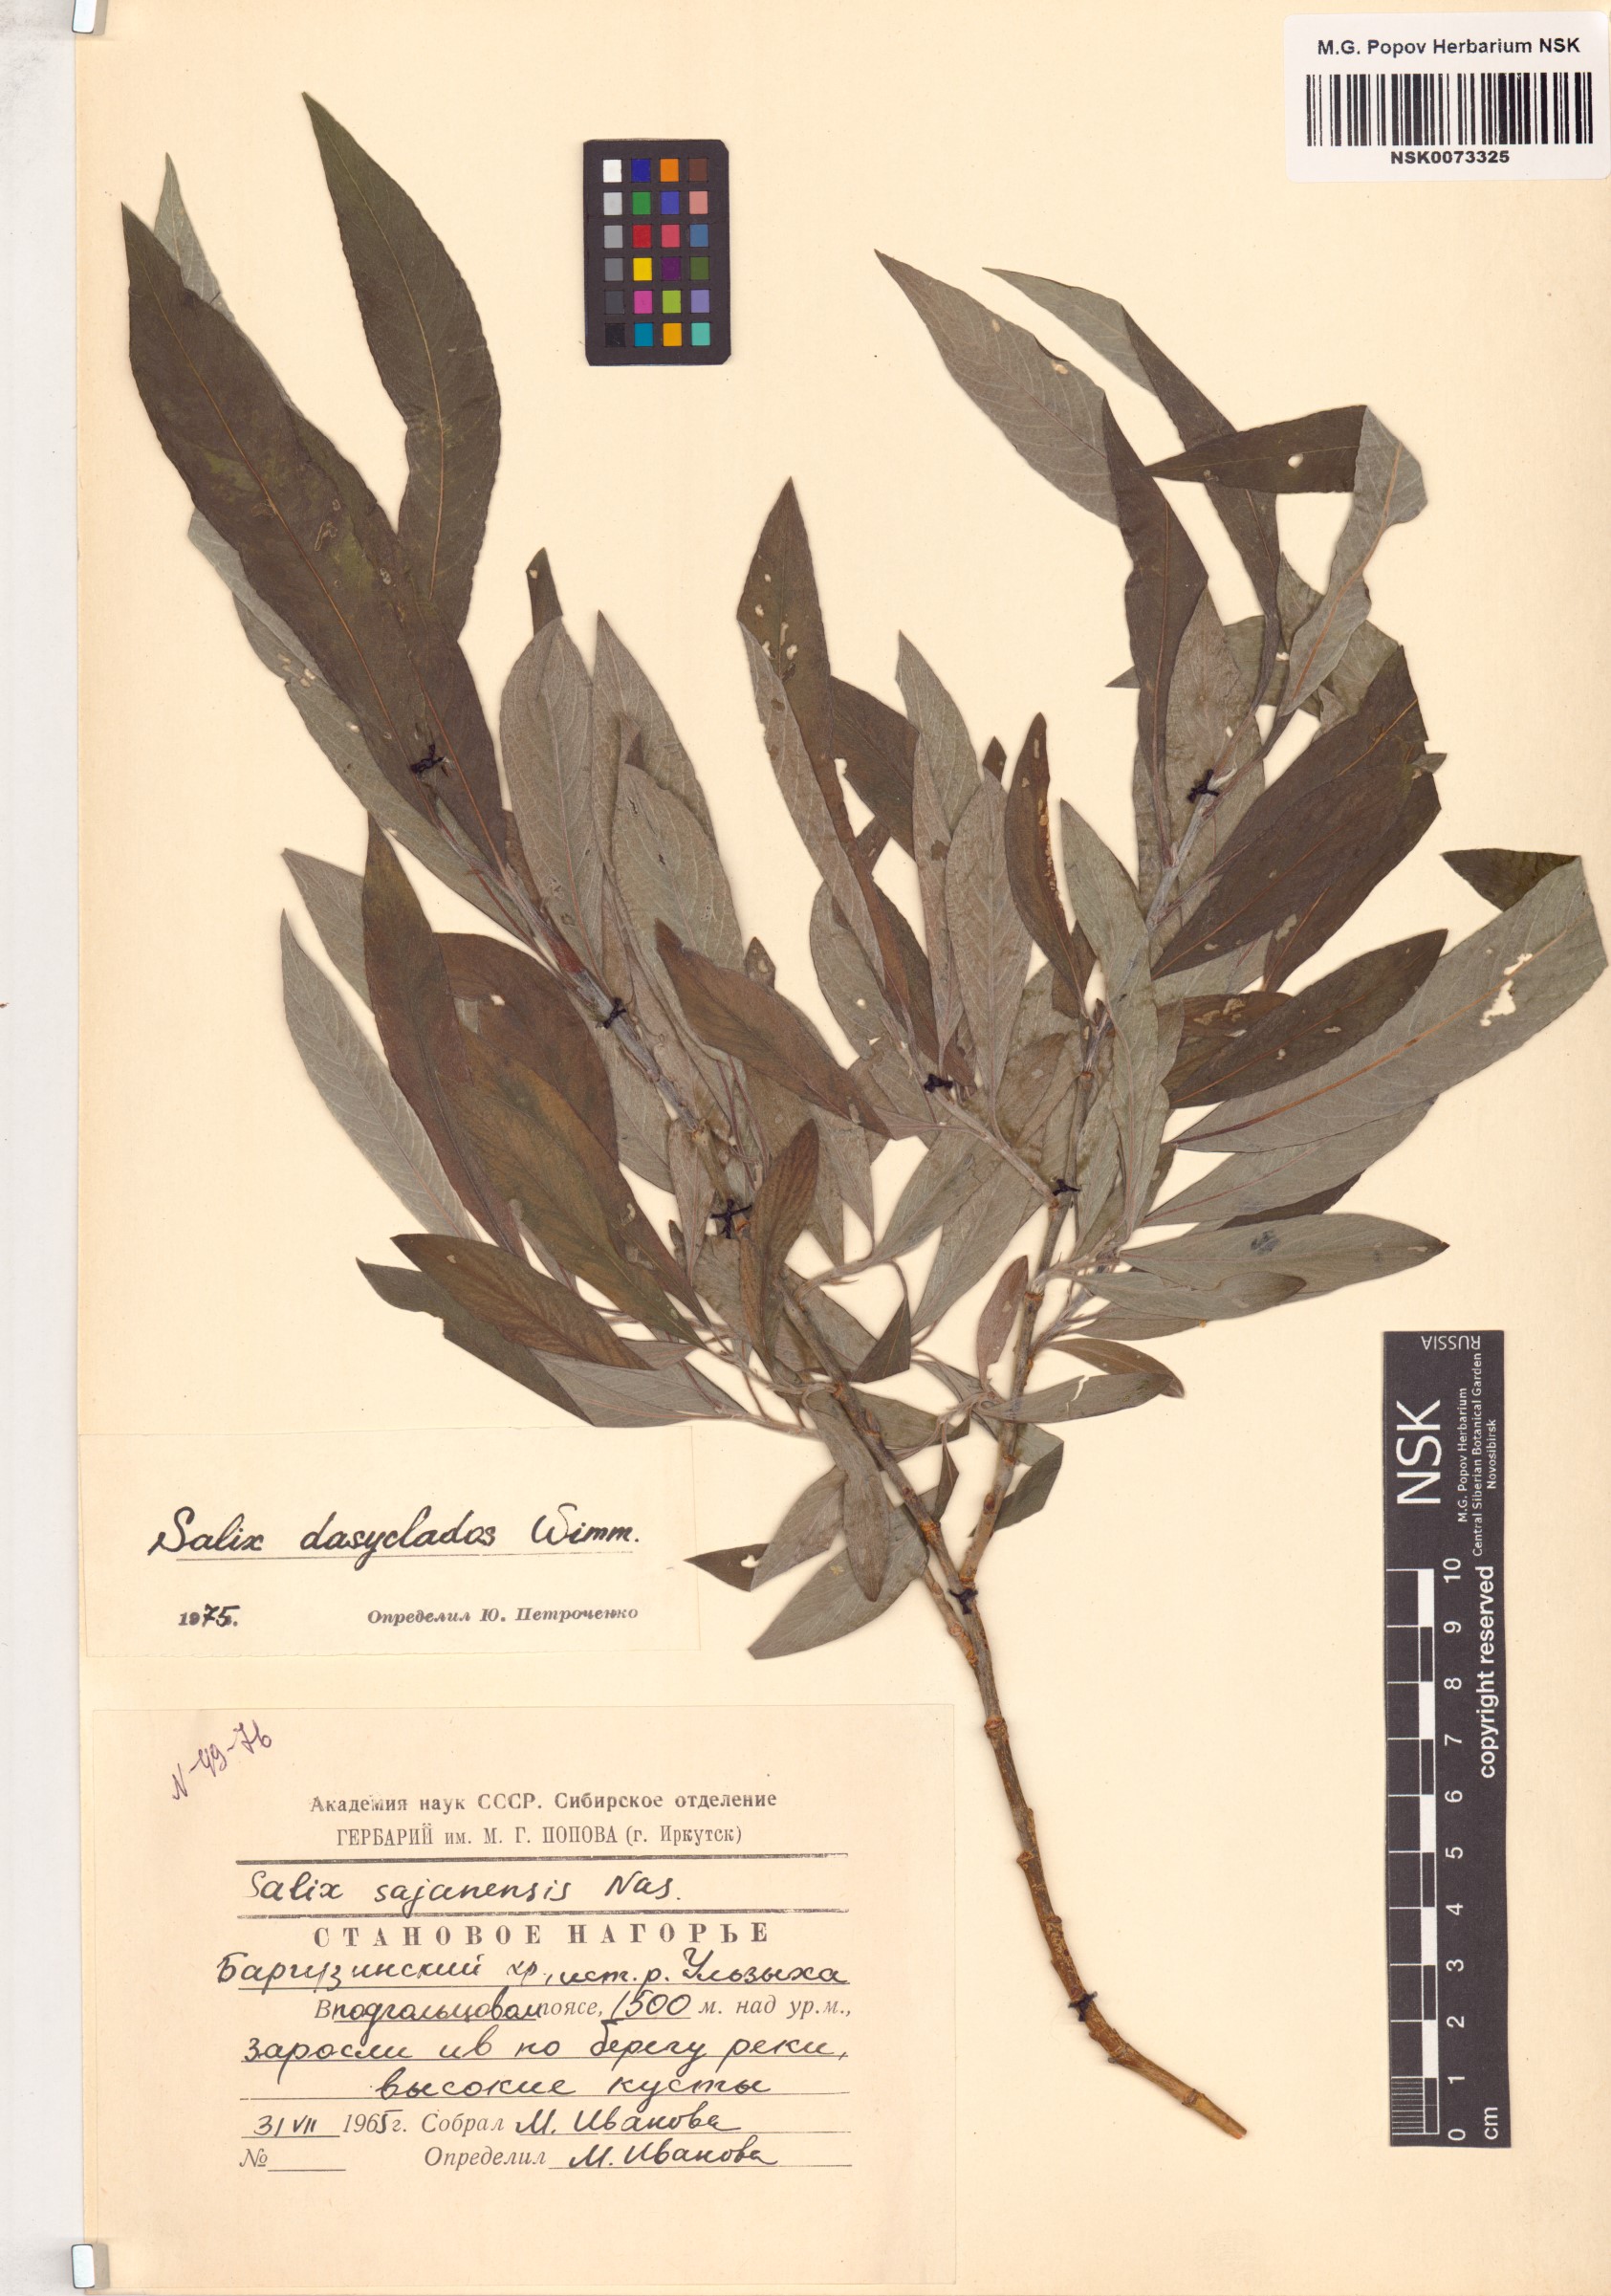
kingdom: Plantae
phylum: Tracheophyta
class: Magnoliopsida
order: Malpighiales
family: Salicaceae
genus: Salix
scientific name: Salix gmelinii
